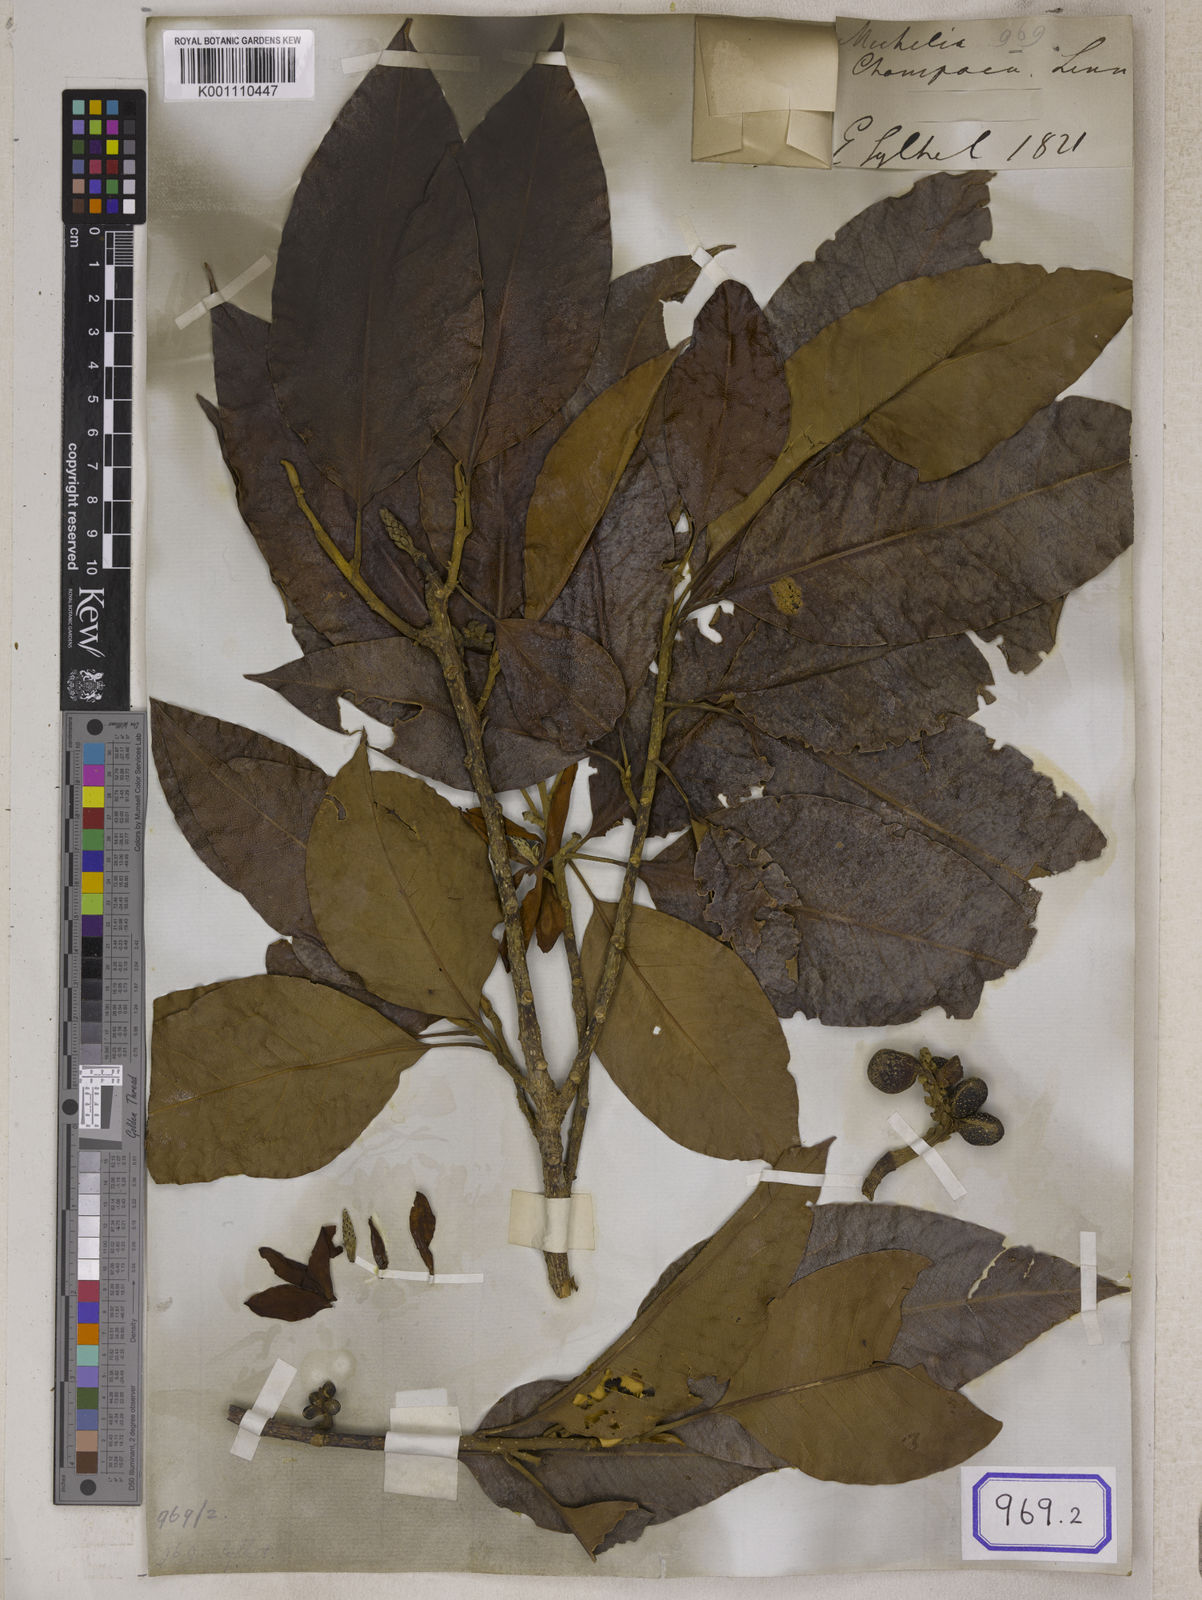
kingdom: Plantae
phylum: Tracheophyta
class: Magnoliopsida
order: Magnoliales
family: Magnoliaceae
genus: Magnolia
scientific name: Magnolia champaca
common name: Champak
